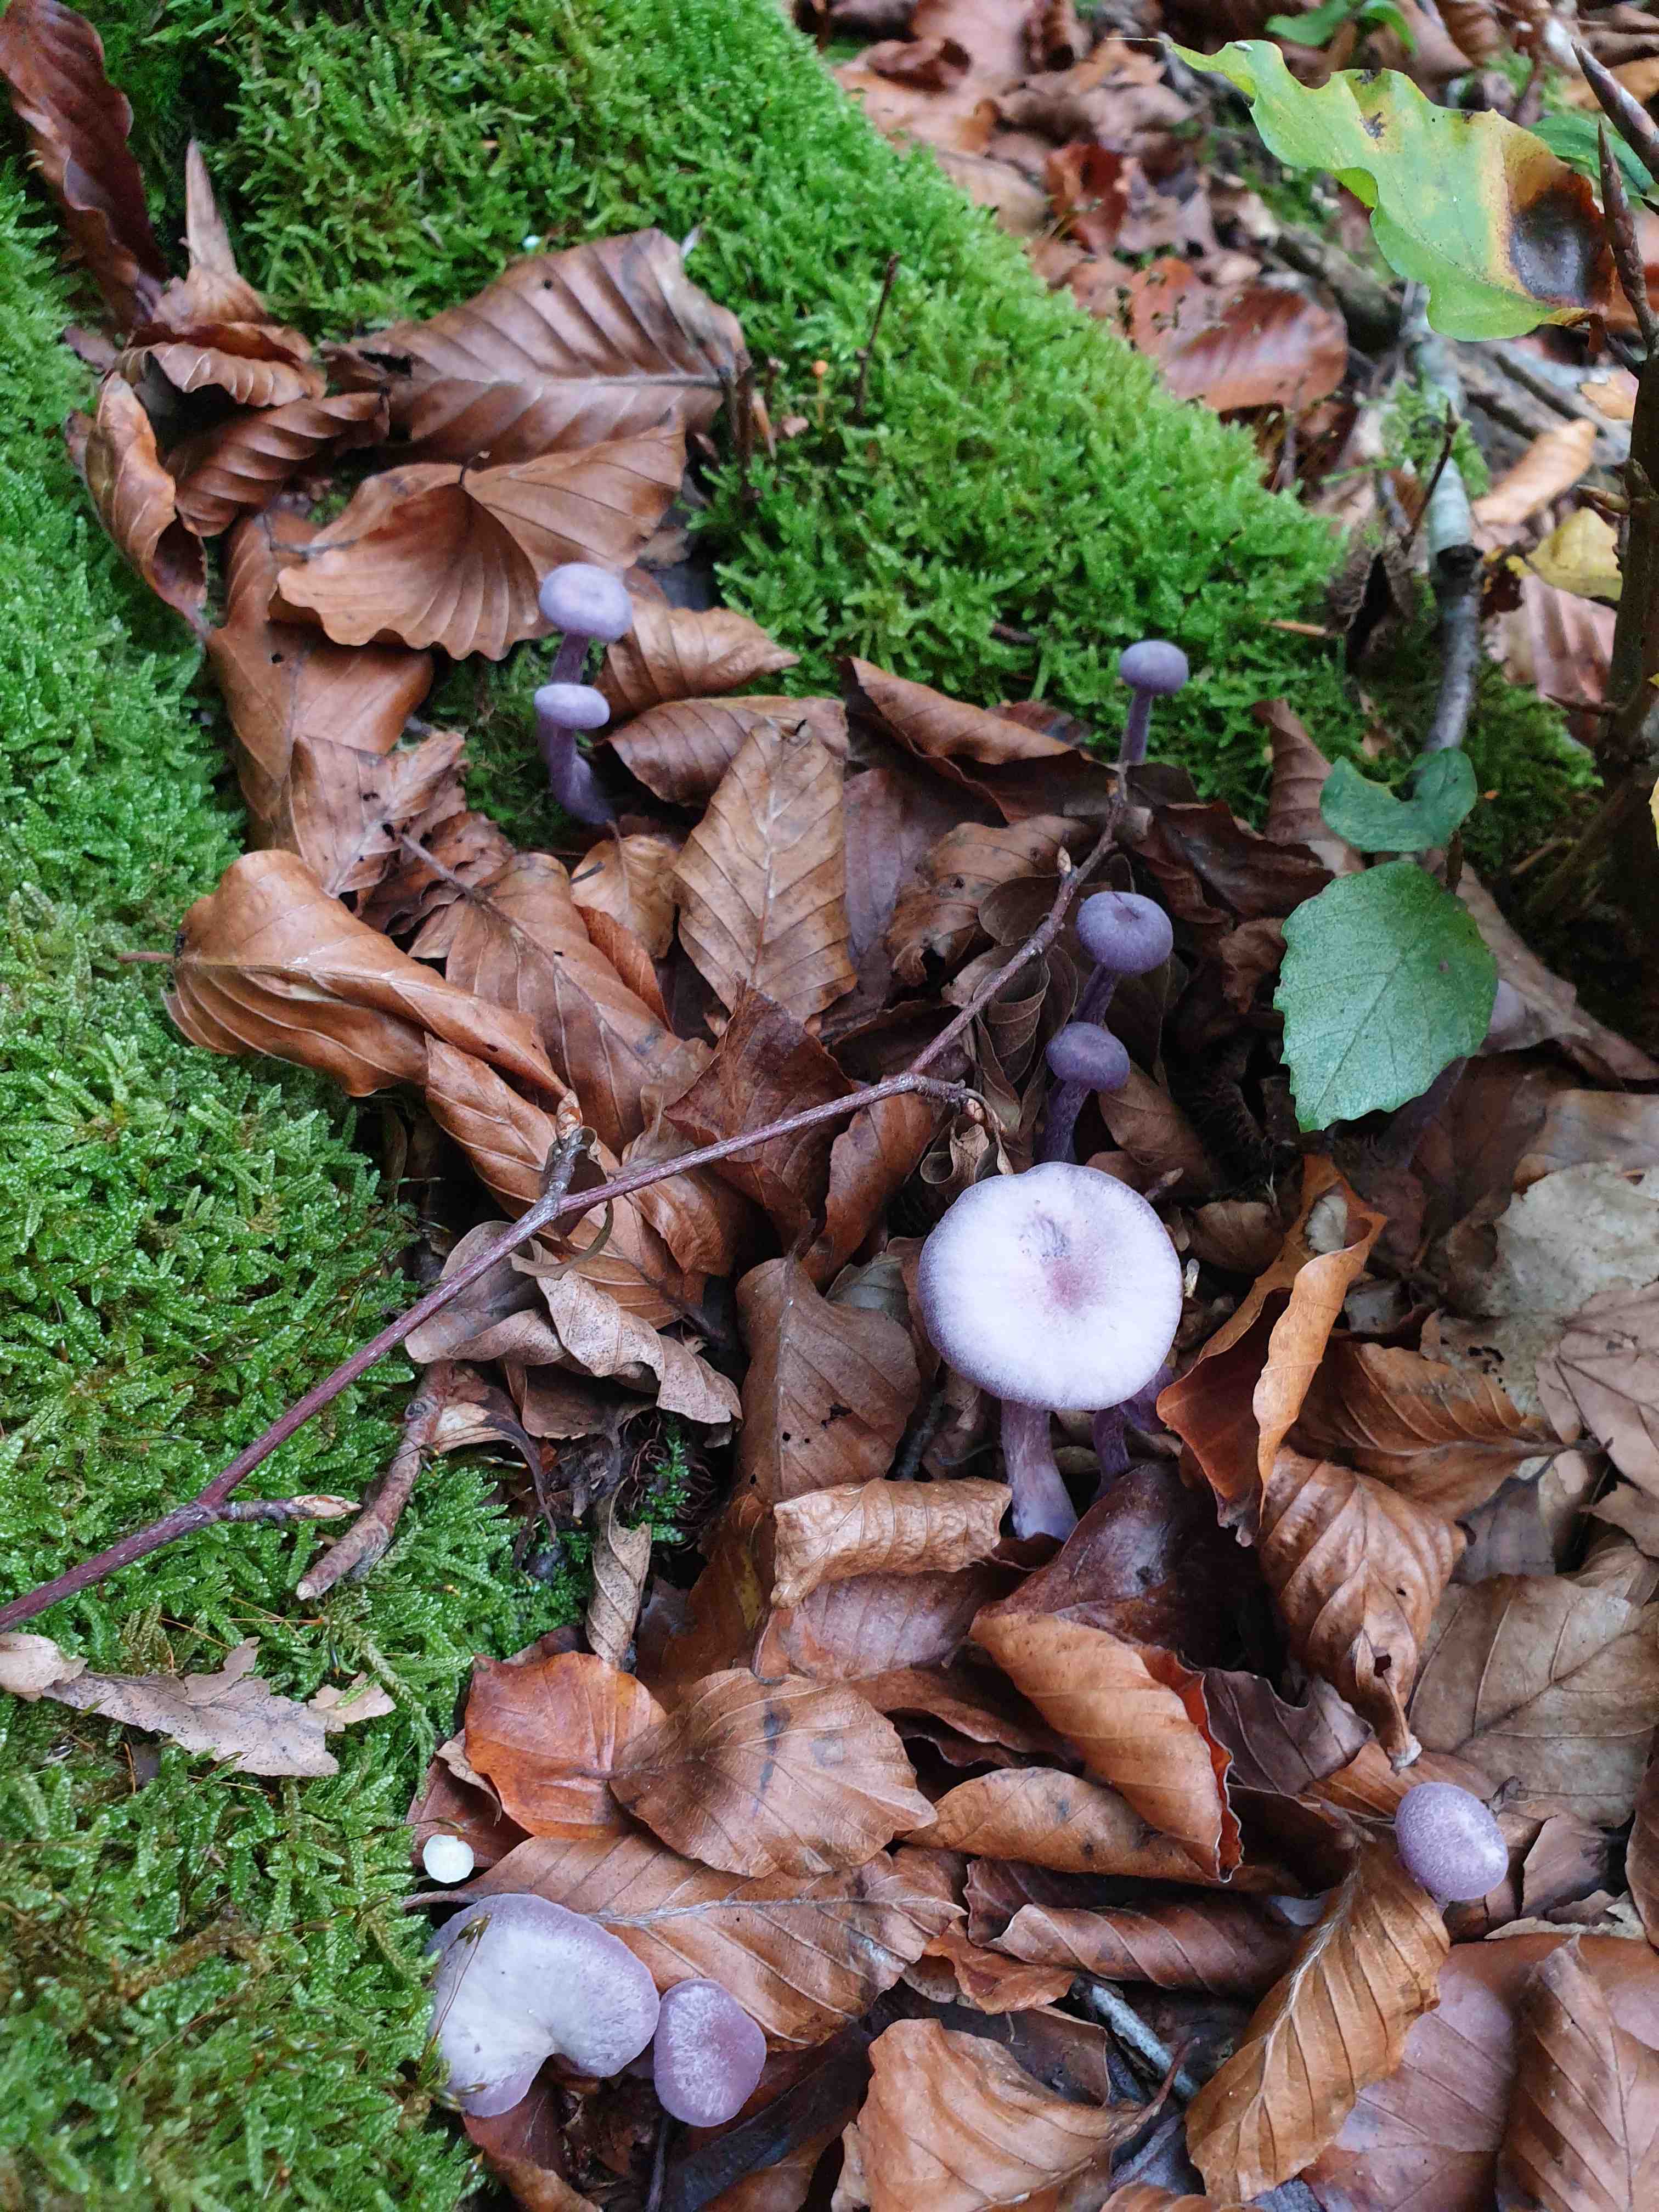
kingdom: Fungi
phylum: Basidiomycota
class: Agaricomycetes
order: Agaricales
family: Hydnangiaceae
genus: Laccaria
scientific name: Laccaria amethystina
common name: violet ametysthat
